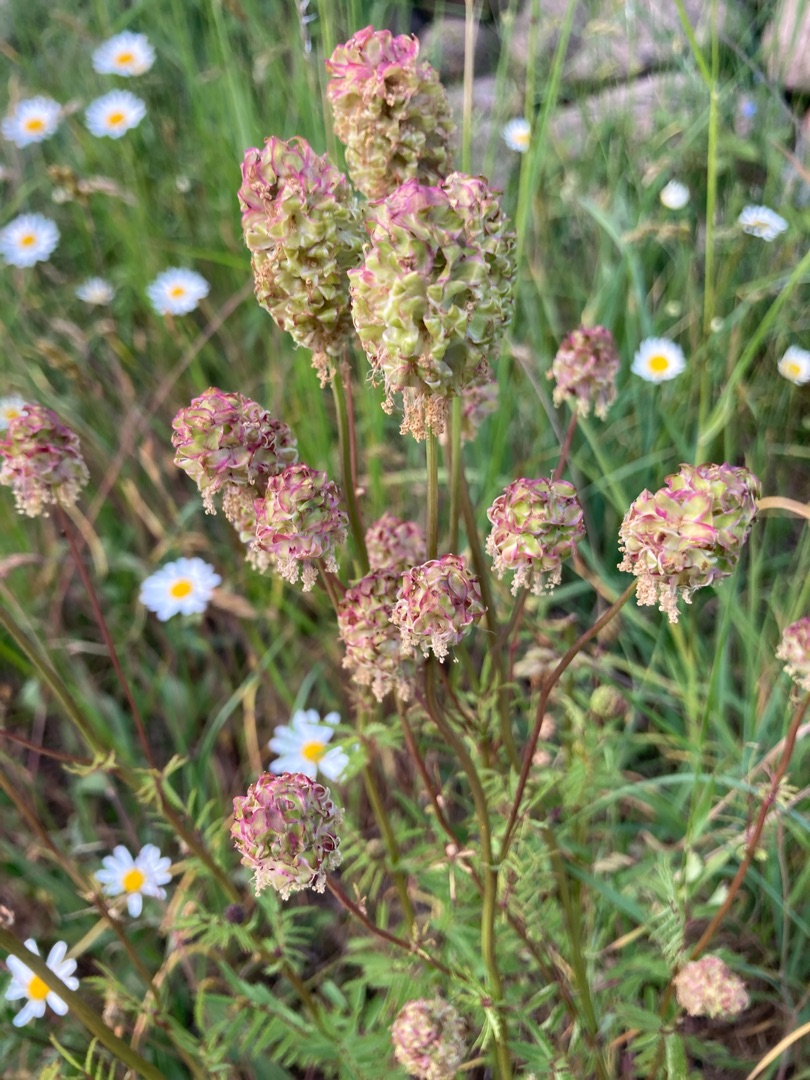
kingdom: Plantae
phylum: Tracheophyta
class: Magnoliopsida
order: Rosales
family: Rosaceae
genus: Poterium
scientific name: Poterium sanguisorba
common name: Bibernelle
